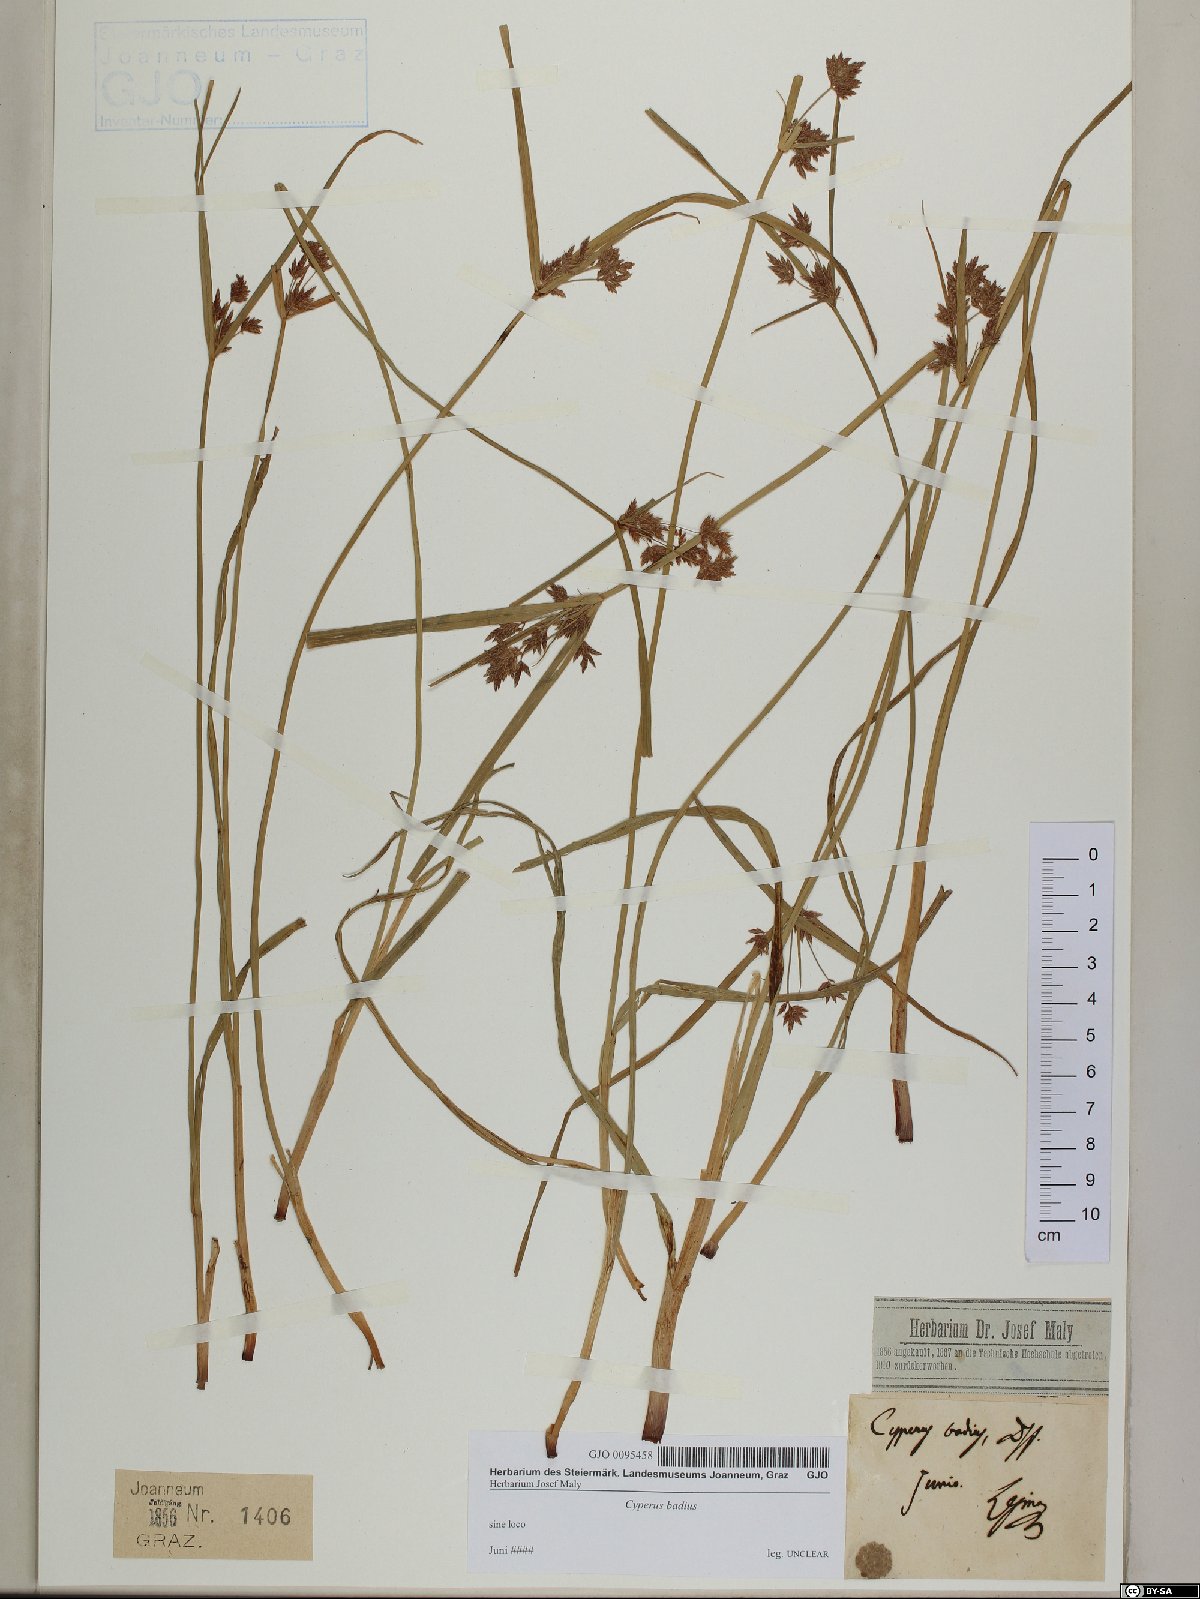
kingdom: Plantae
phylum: Tracheophyta
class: Liliopsida
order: Poales
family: Cyperaceae
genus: Cyperus
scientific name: Cyperus longus
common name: Galingale
